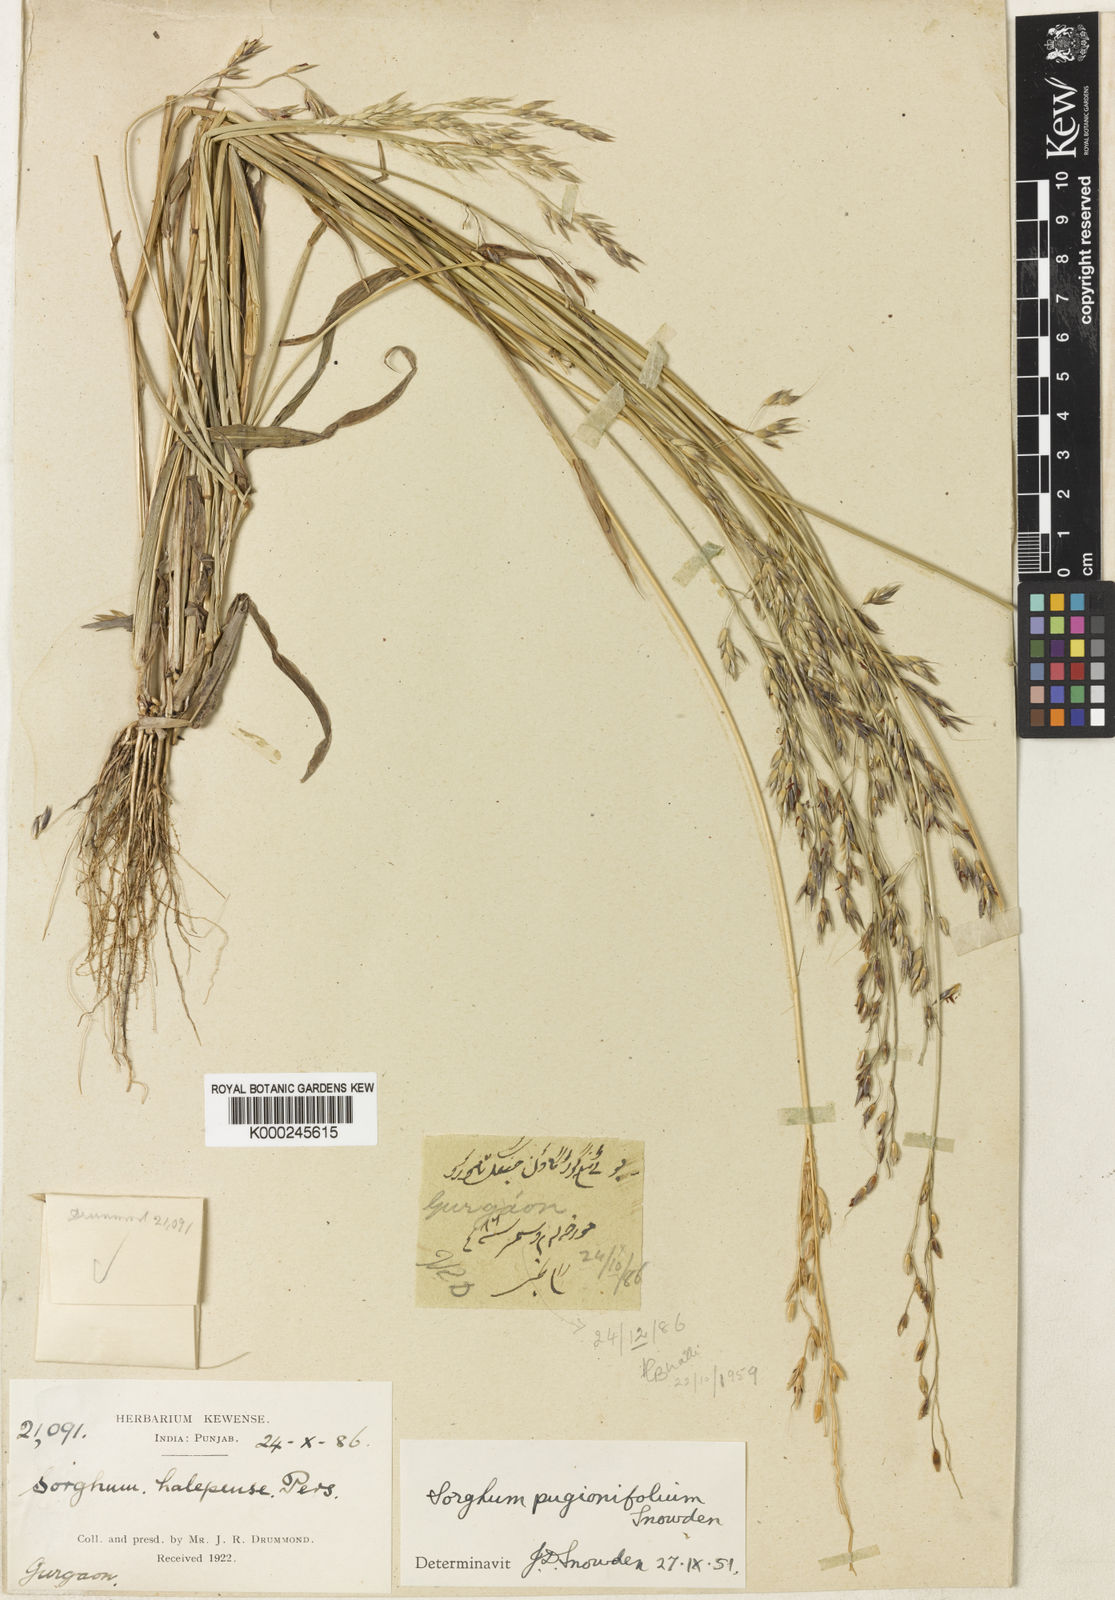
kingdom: Plantae
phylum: Tracheophyta
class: Liliopsida
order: Poales
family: Poaceae
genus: Sorghum
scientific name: Sorghum arundinaceum
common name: Sorghum
